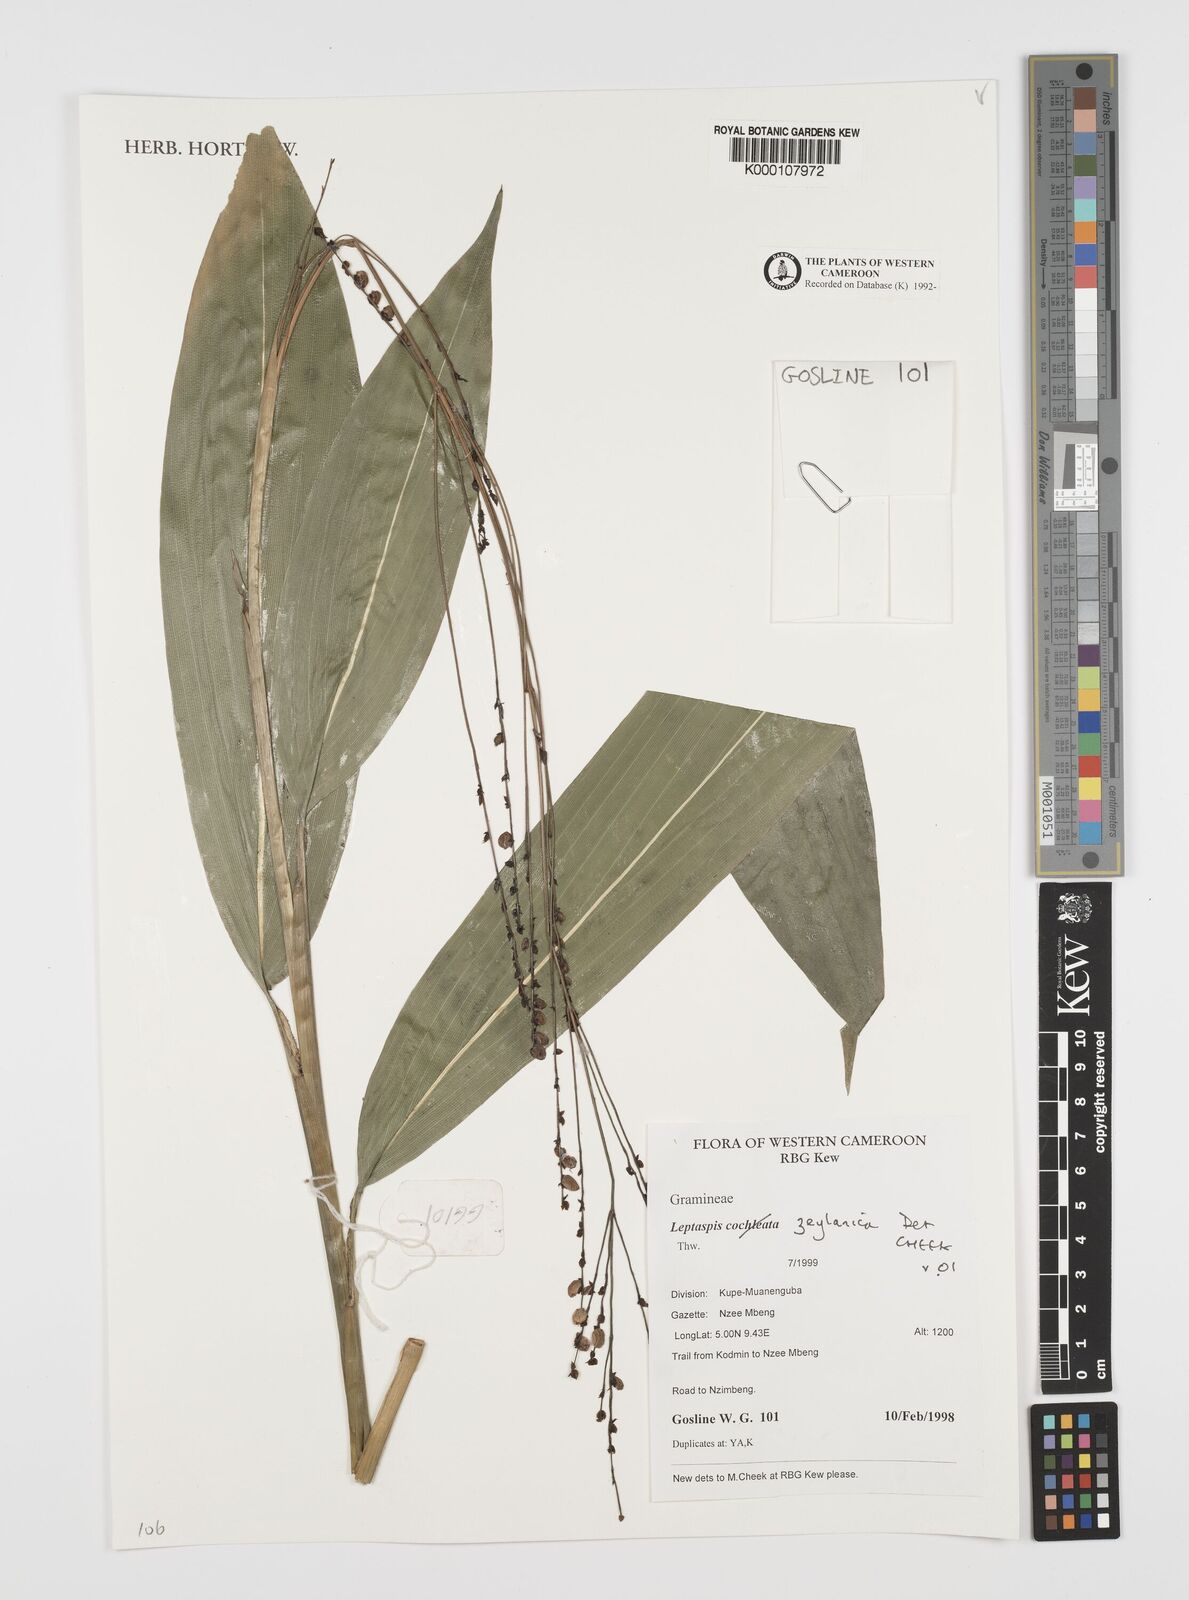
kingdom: Plantae
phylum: Tracheophyta
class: Liliopsida
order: Poales
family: Poaceae
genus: Leptaspis
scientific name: Leptaspis zeylanica
